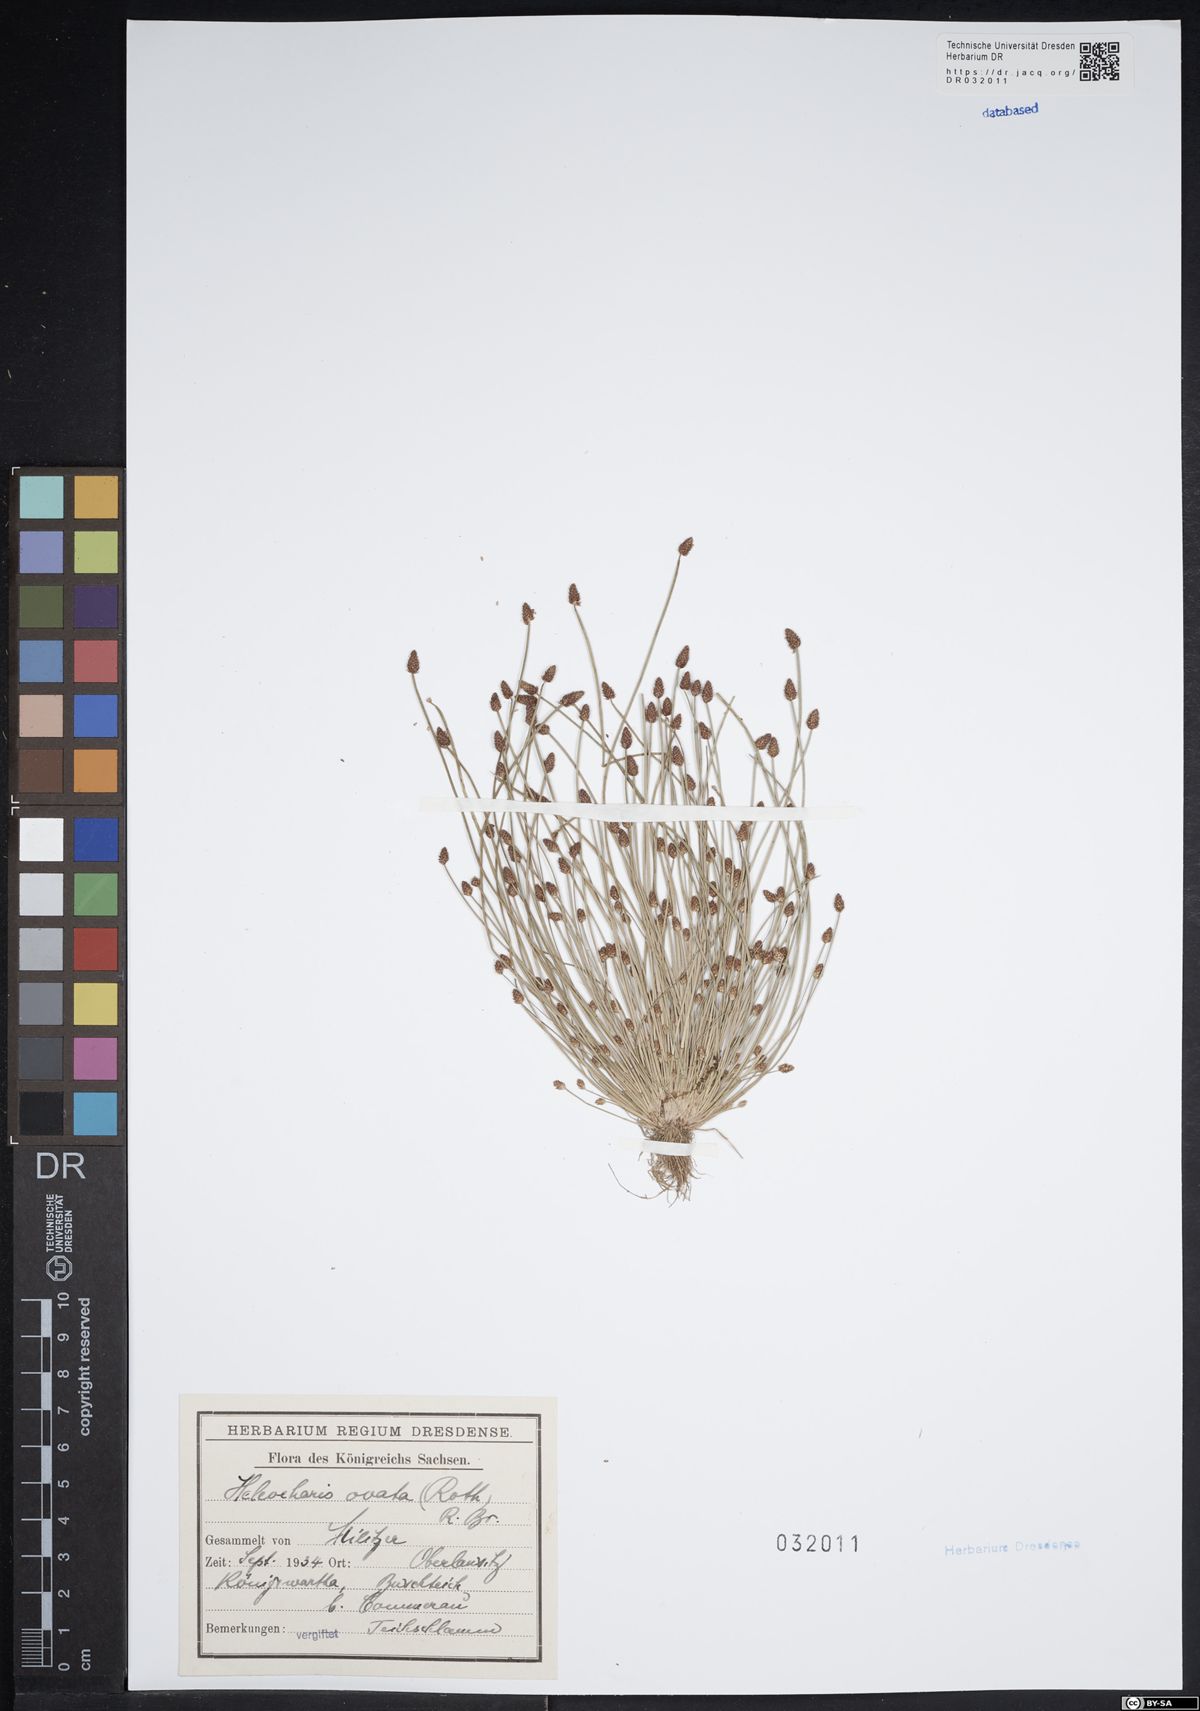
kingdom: Plantae
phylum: Tracheophyta
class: Liliopsida
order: Poales
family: Cyperaceae
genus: Eleocharis
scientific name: Eleocharis ovata
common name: Oval spike-rush
